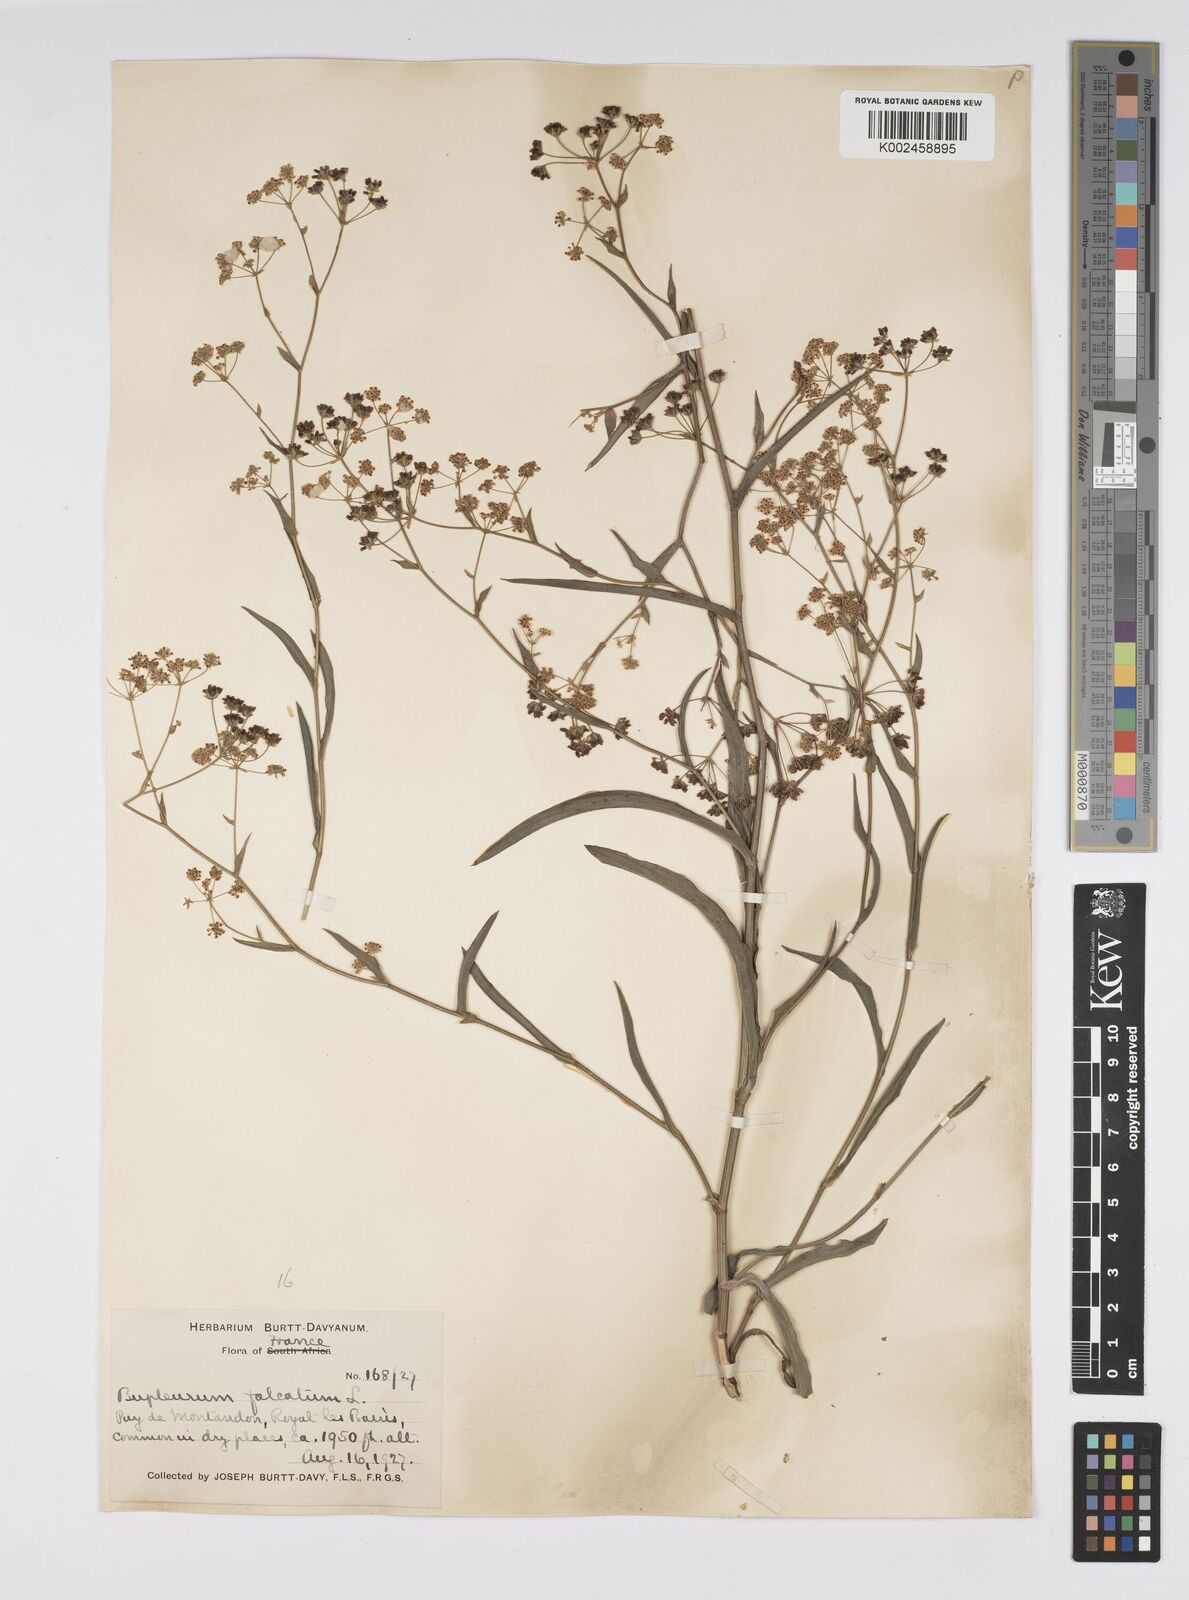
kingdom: Plantae
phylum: Tracheophyta
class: Magnoliopsida
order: Apiales
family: Apiaceae
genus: Bupleurum
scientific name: Bupleurum falcatum
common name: Sickle-leaved hare's-ear
